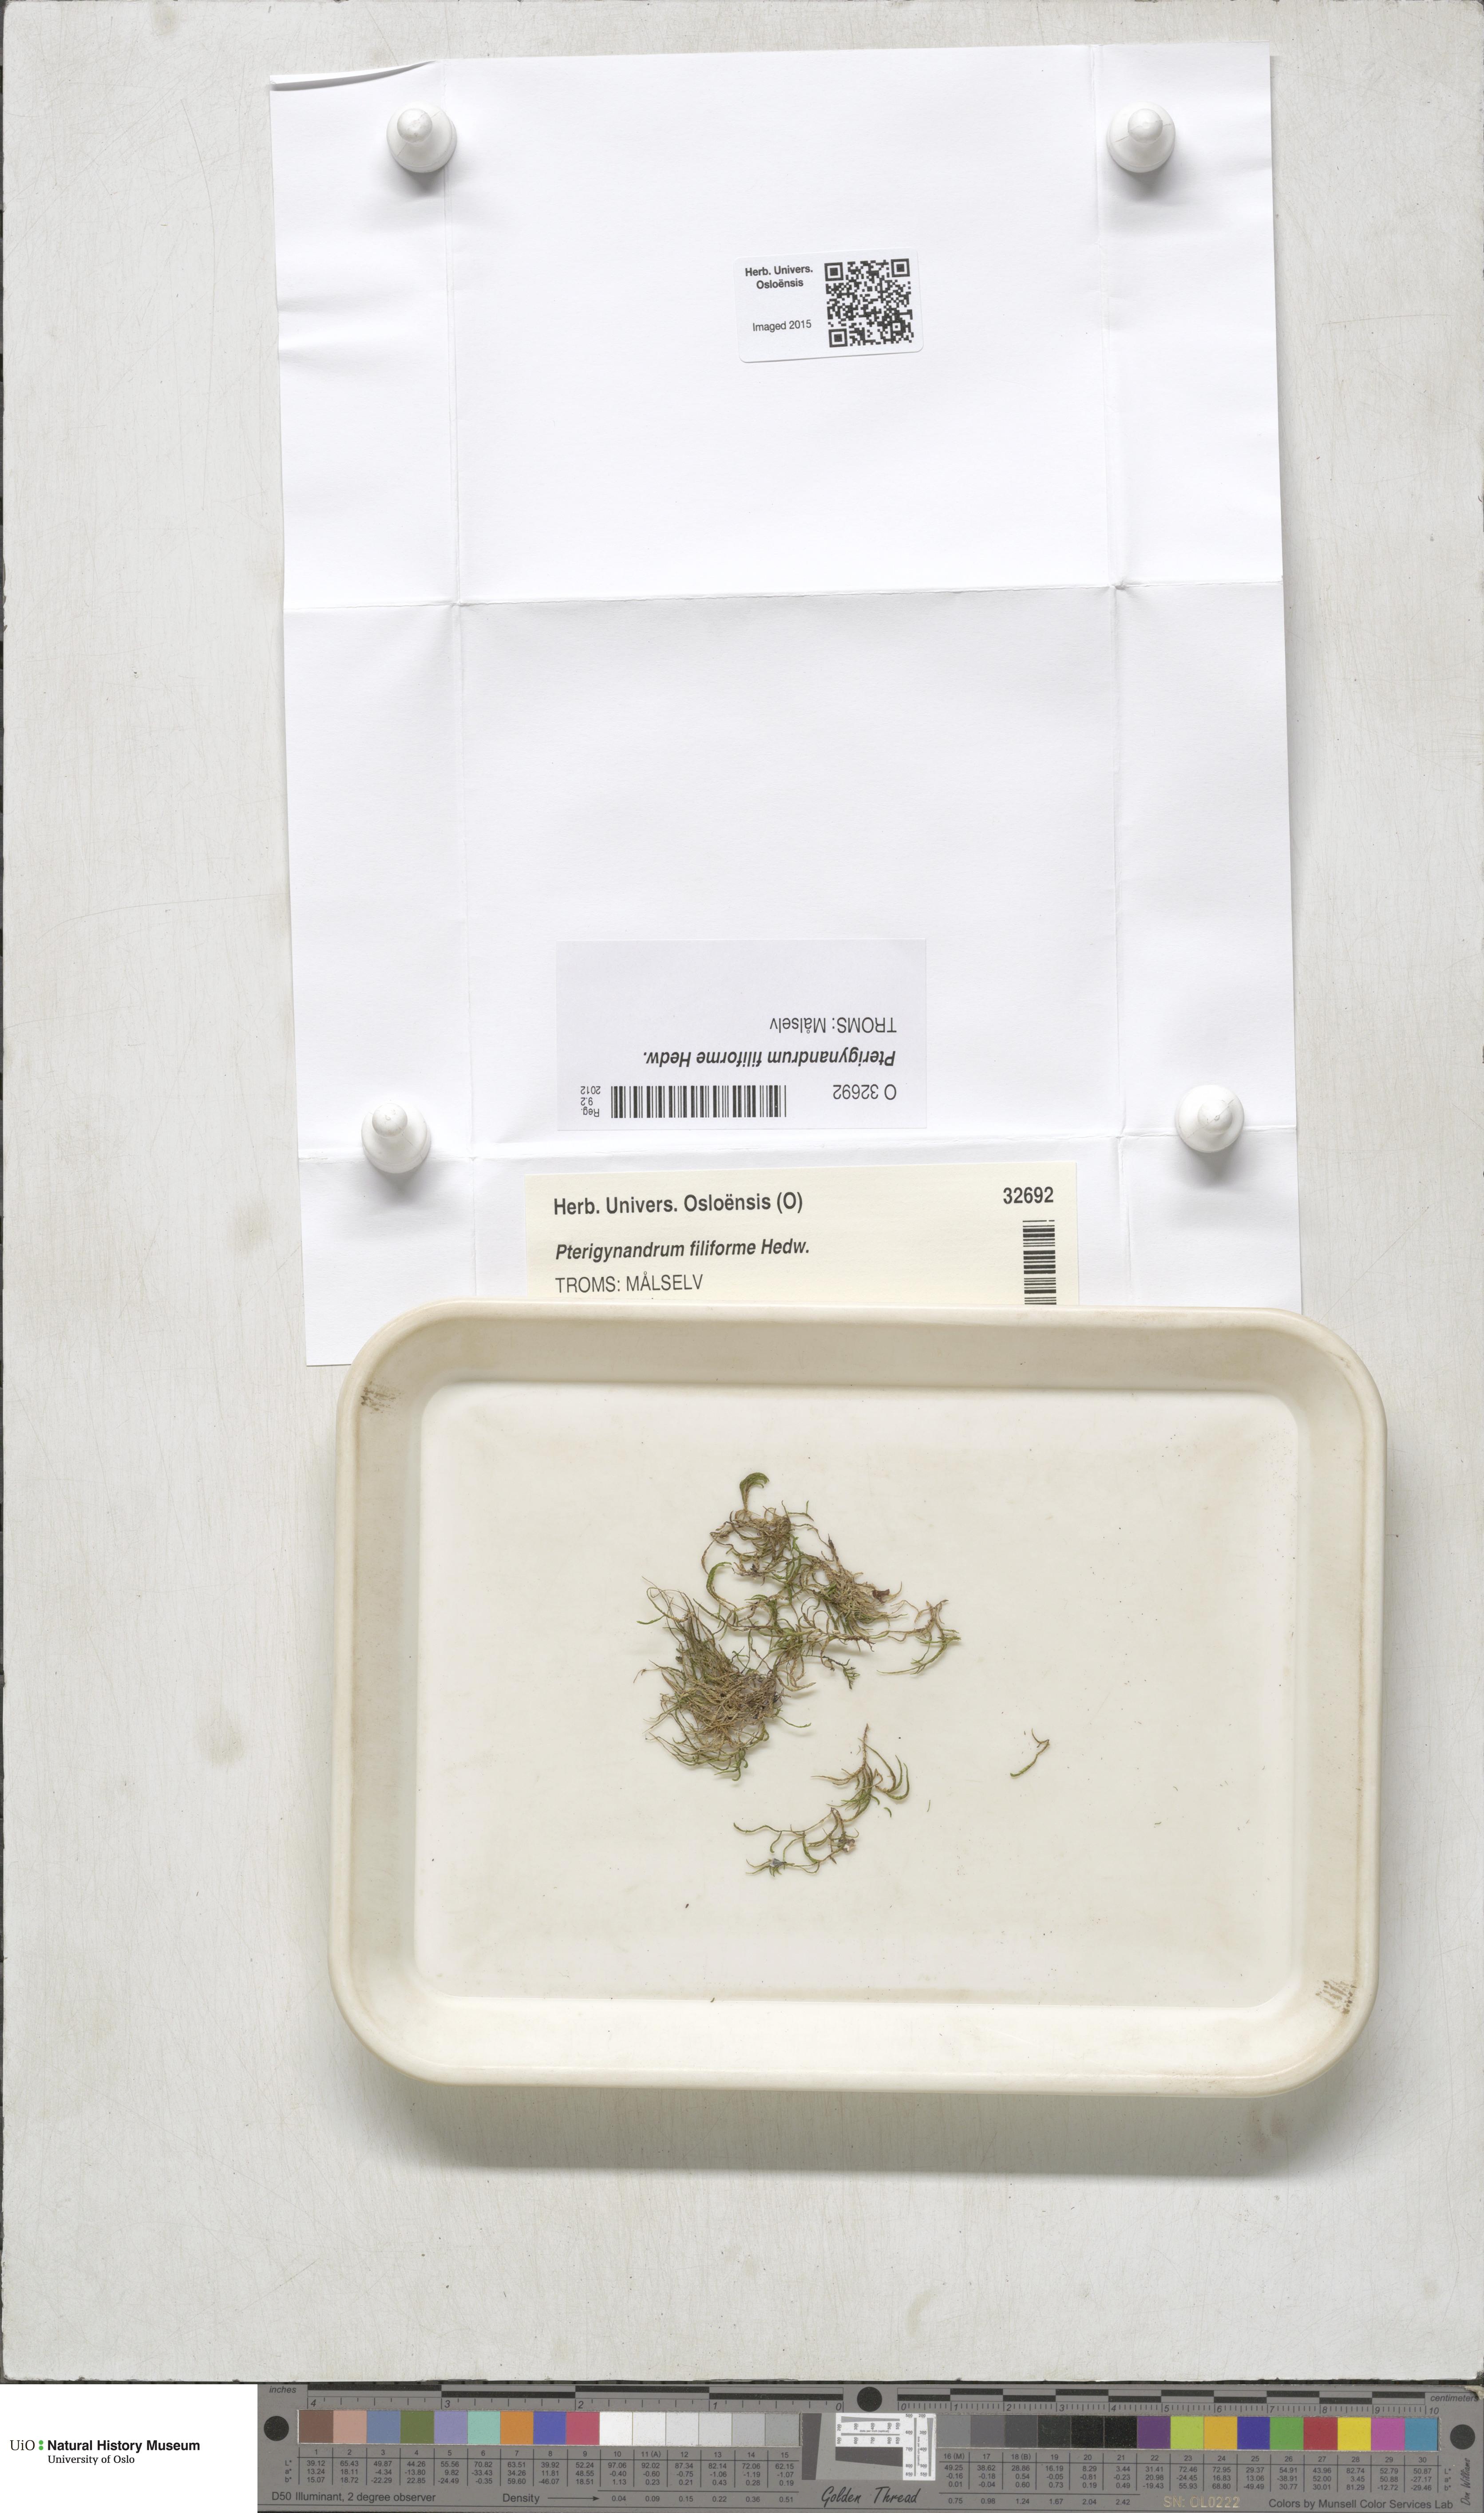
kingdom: Plantae
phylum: Bryophyta
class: Bryopsida
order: Hypnales
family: Pterigynandraceae
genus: Pterigynandrum
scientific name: Pterigynandrum filiforme
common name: Capillary wing moss
